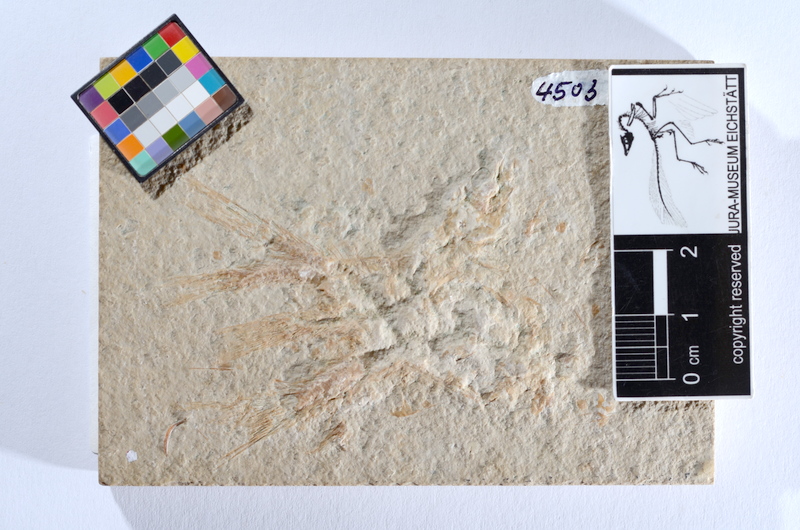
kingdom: Animalia
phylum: Chordata
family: Ascalaboidae
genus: Tharsis
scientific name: Tharsis dubius
